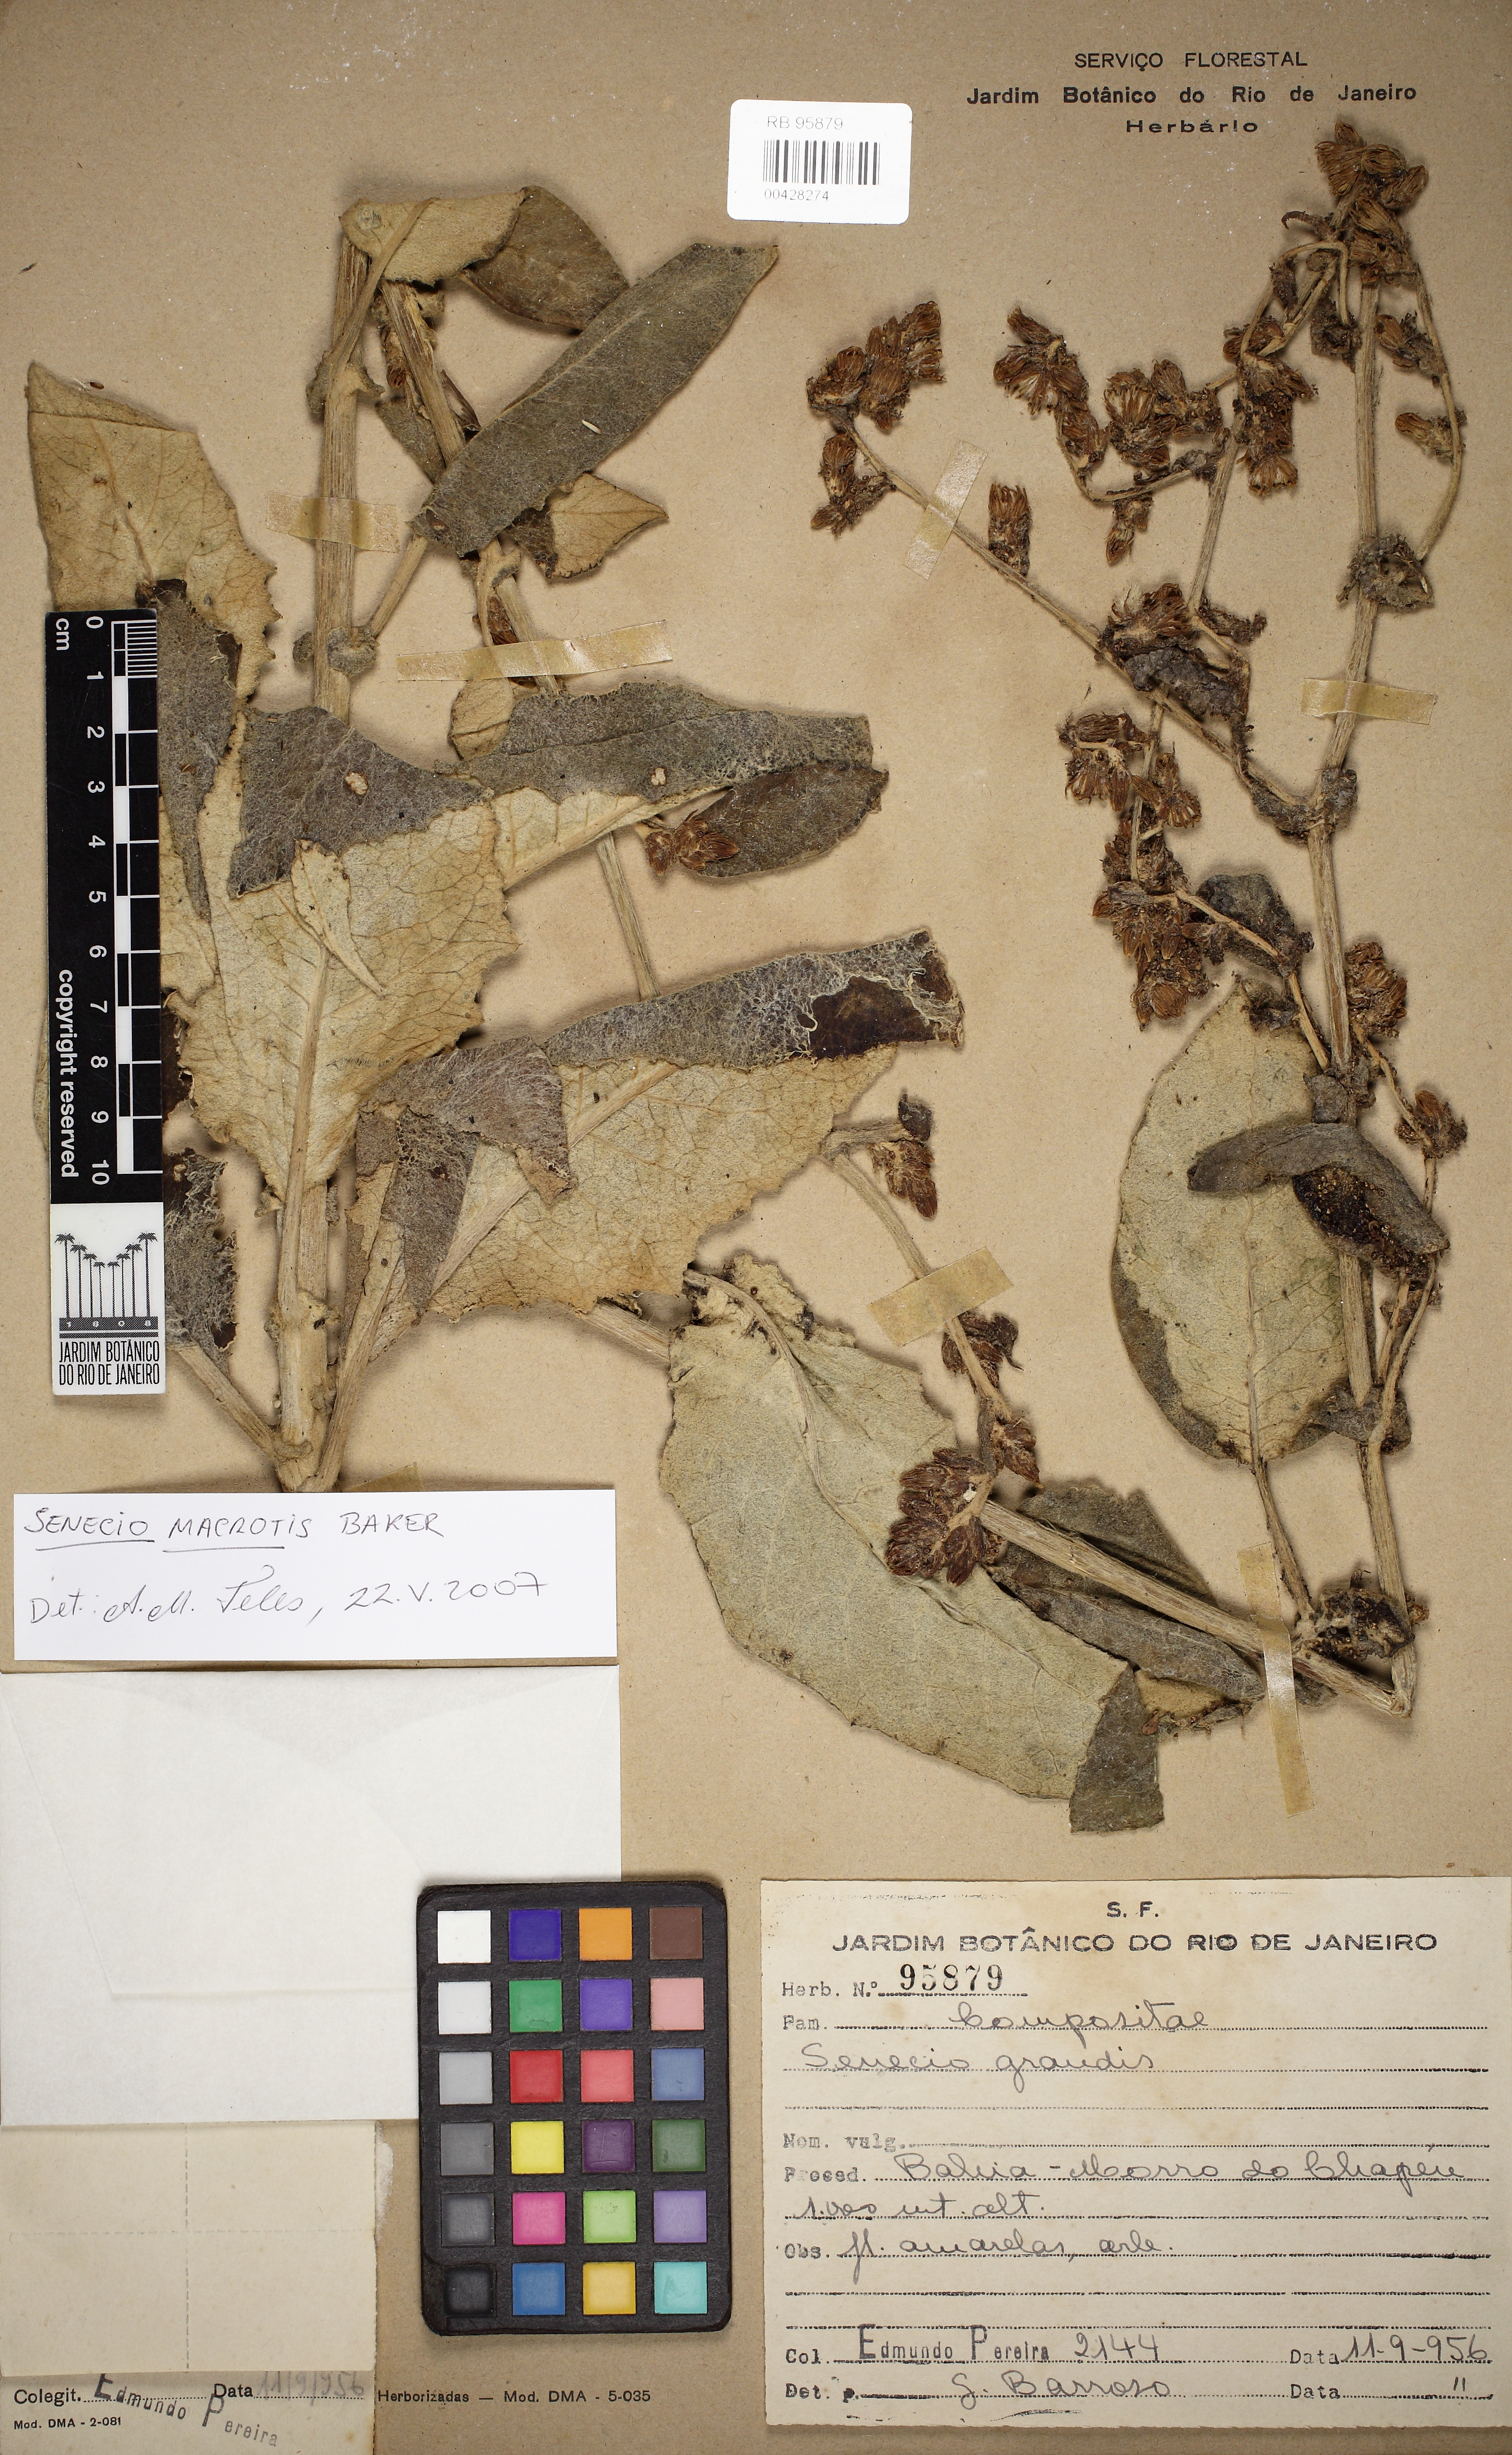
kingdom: Plantae
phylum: Tracheophyta
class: Magnoliopsida
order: Asterales
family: Asteraceae
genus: Senecio
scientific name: Senecio macrotis
